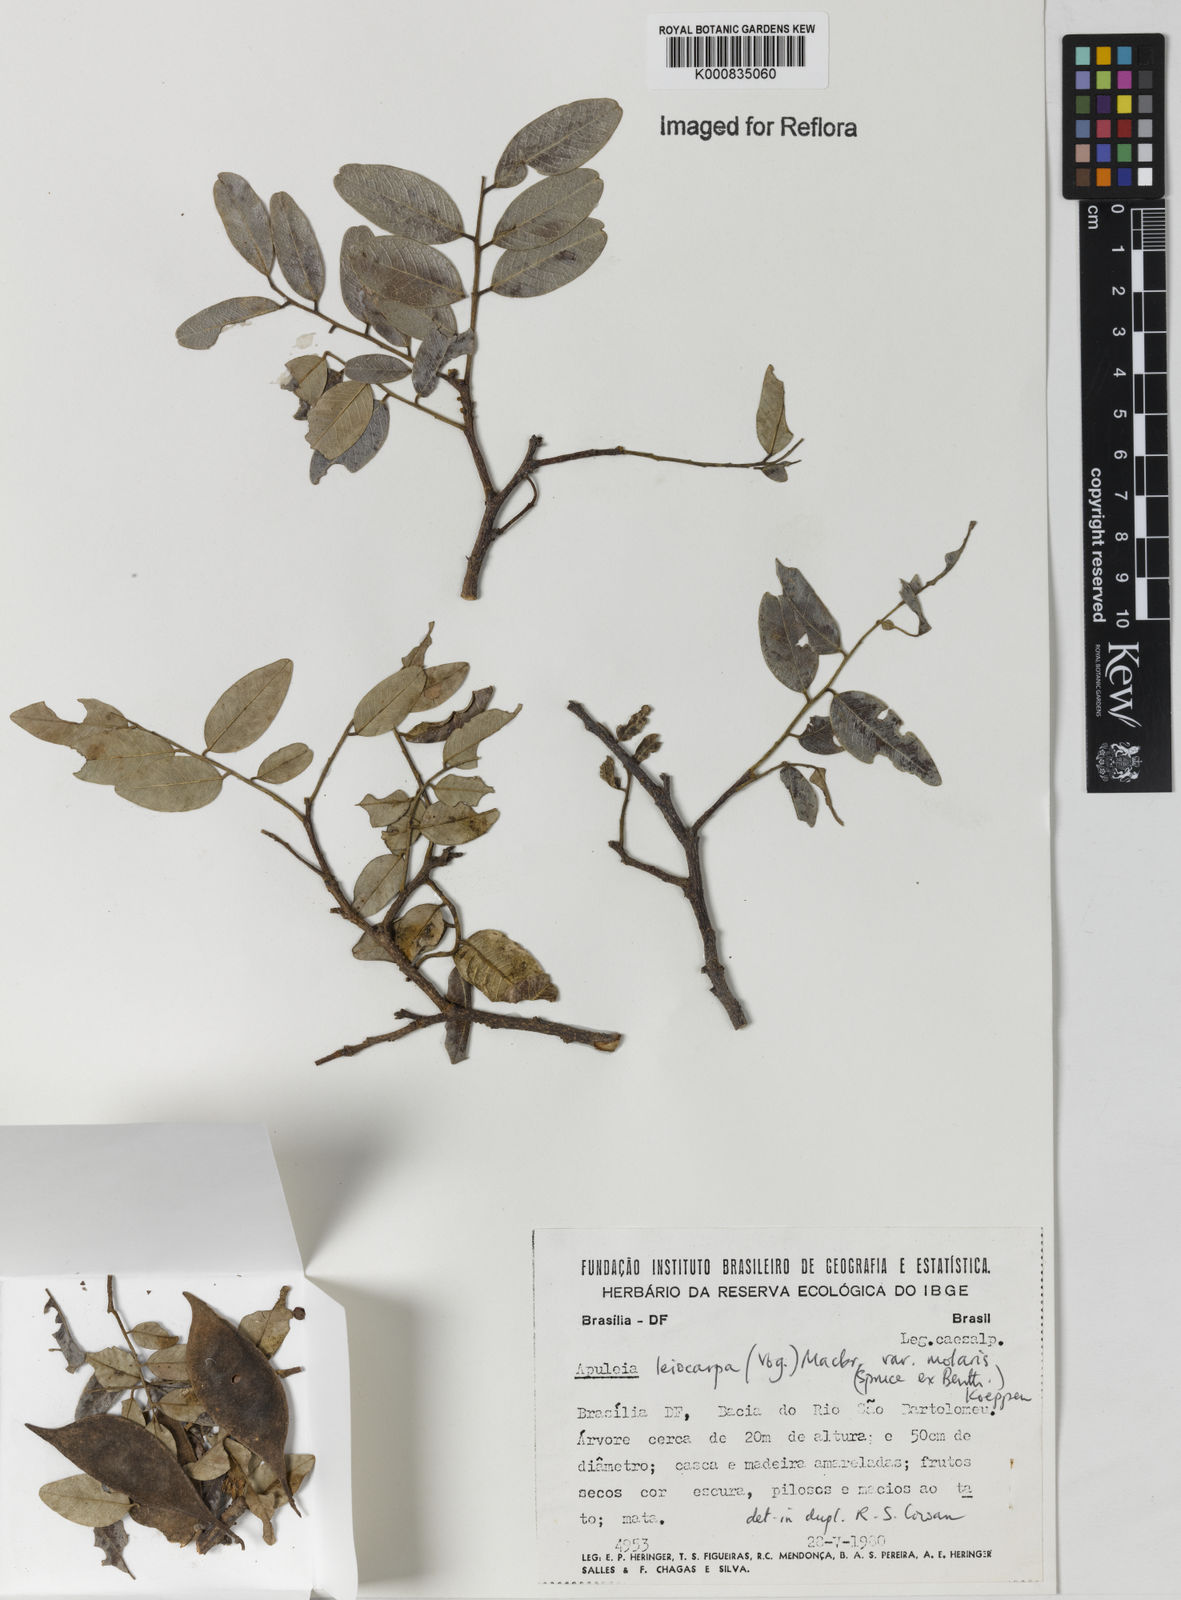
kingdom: Plantae
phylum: Tracheophyta
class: Magnoliopsida
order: Fabales
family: Fabaceae
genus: Apuleia
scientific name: Apuleia leiocarpa
